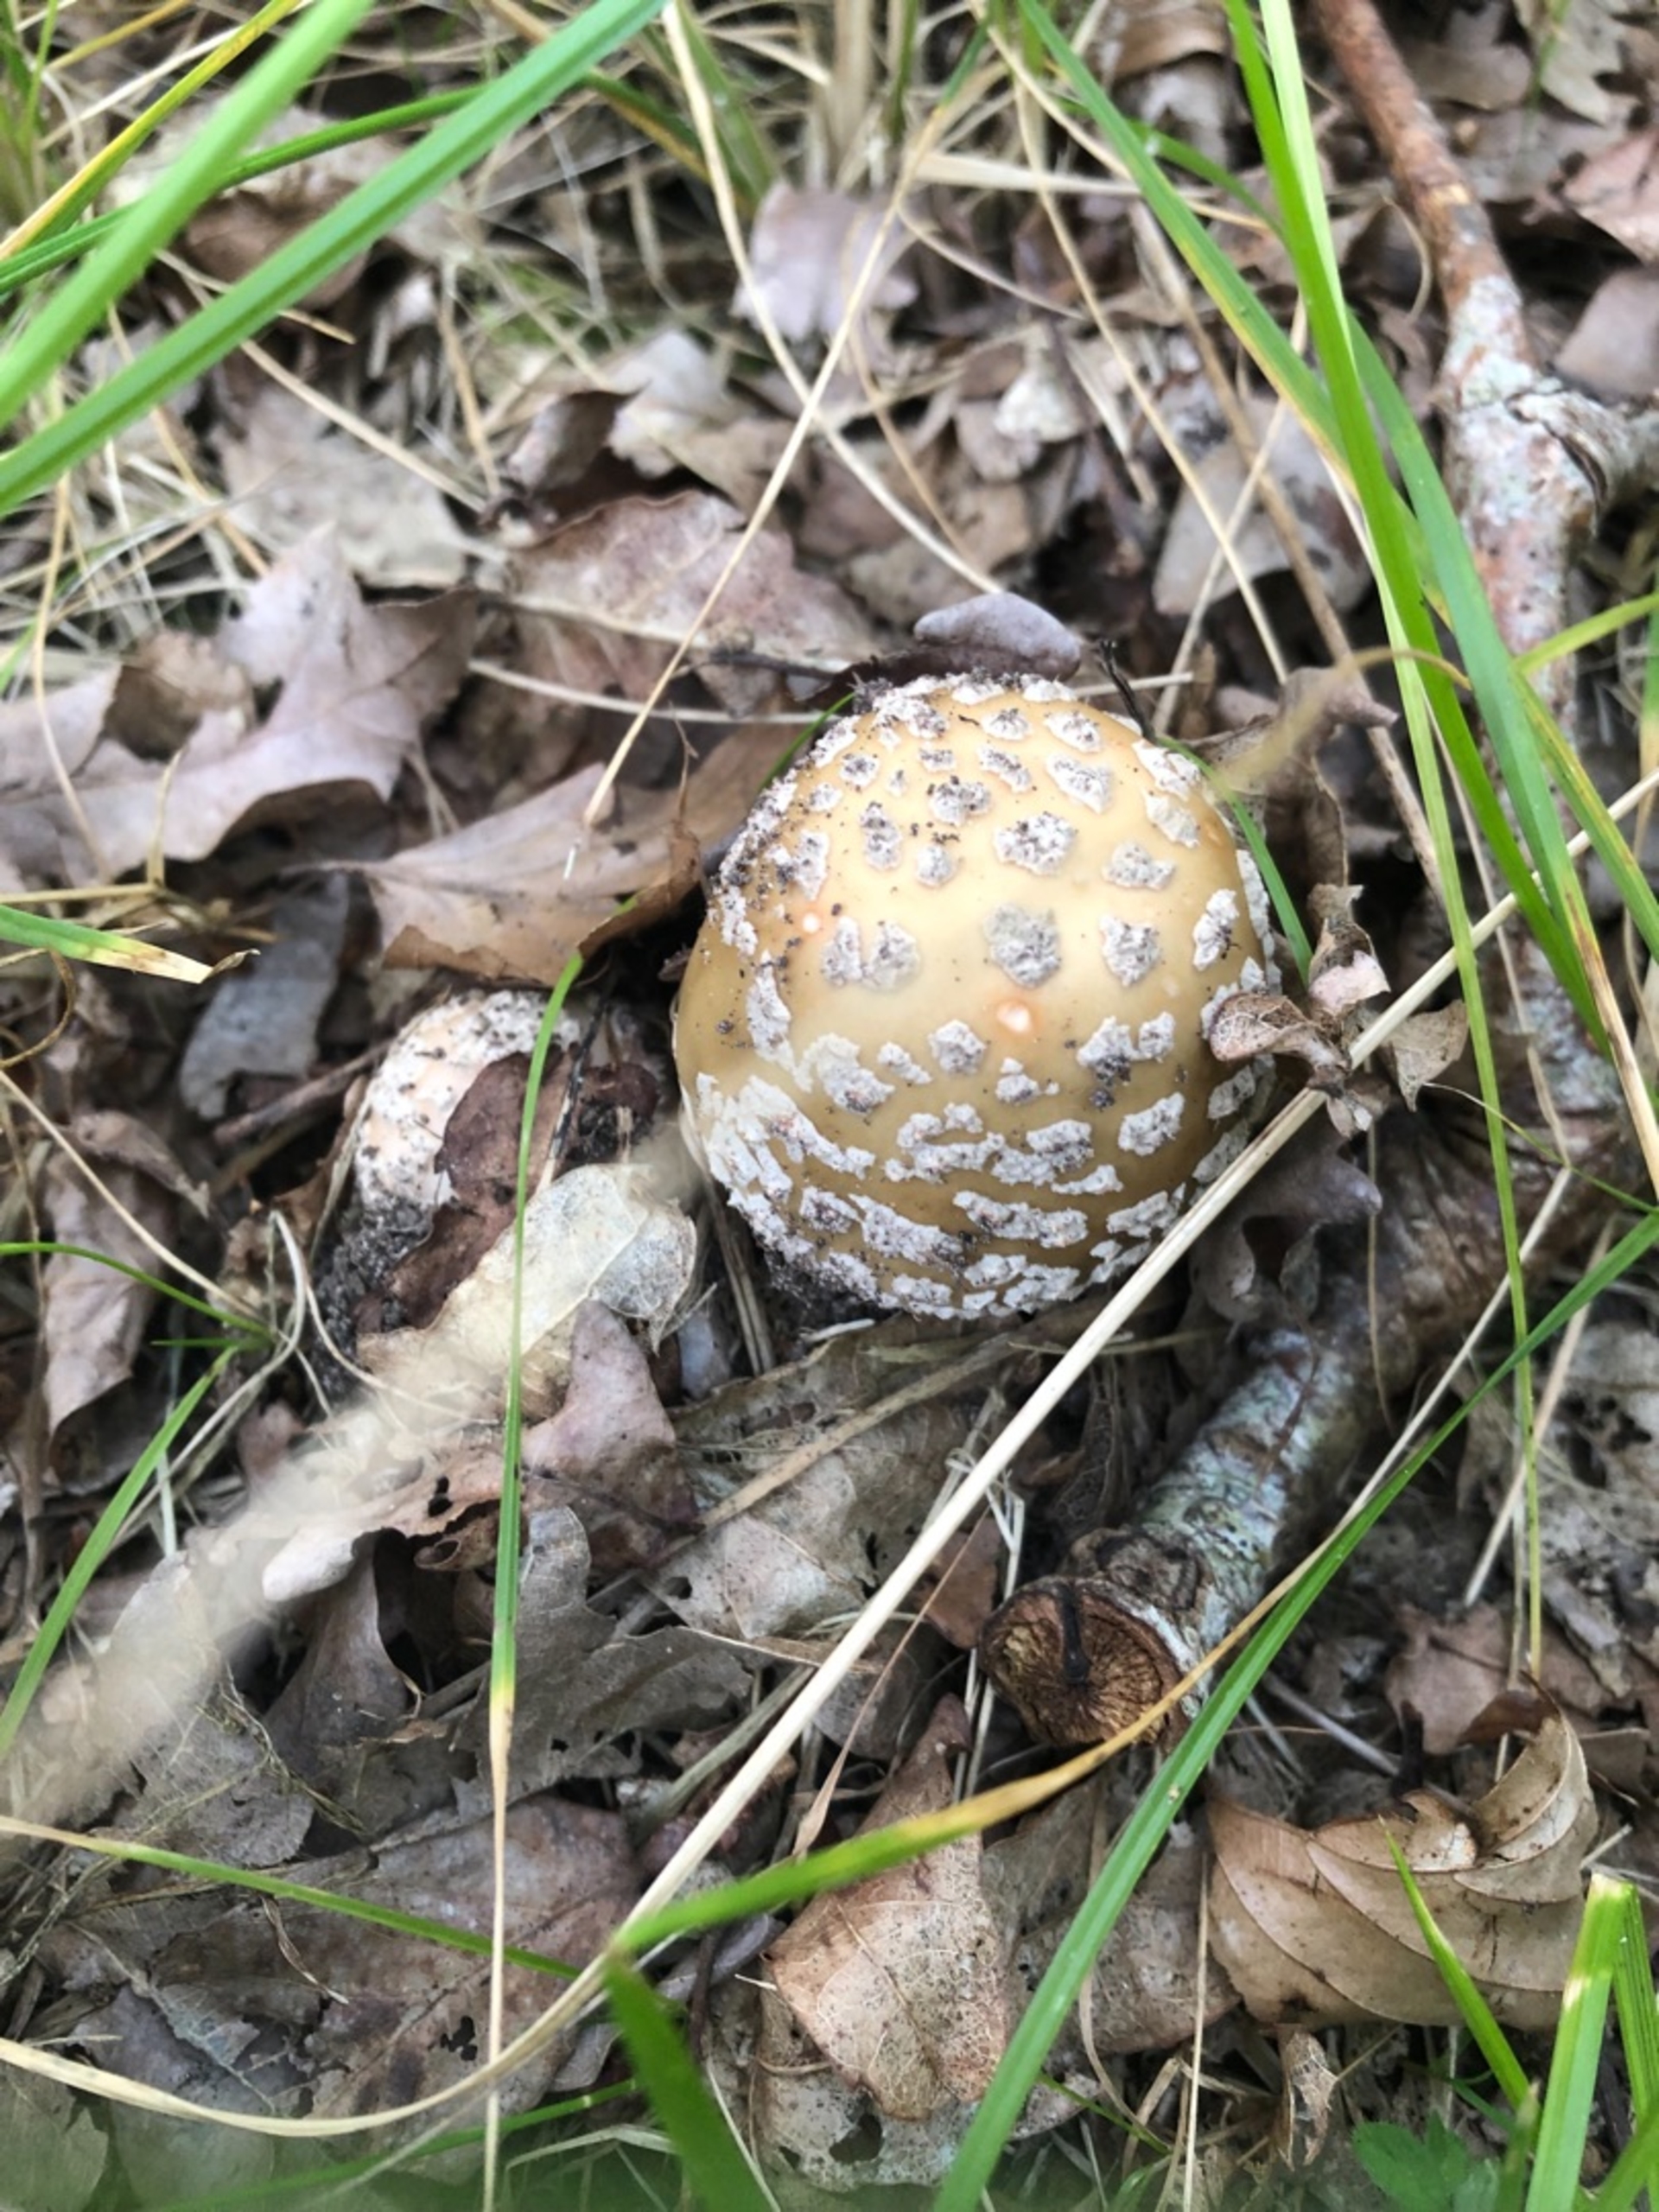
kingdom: Fungi
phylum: Basidiomycota
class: Agaricomycetes
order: Agaricales
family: Amanitaceae
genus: Amanita
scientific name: Amanita rubescens
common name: Rødmende fluesvamp
